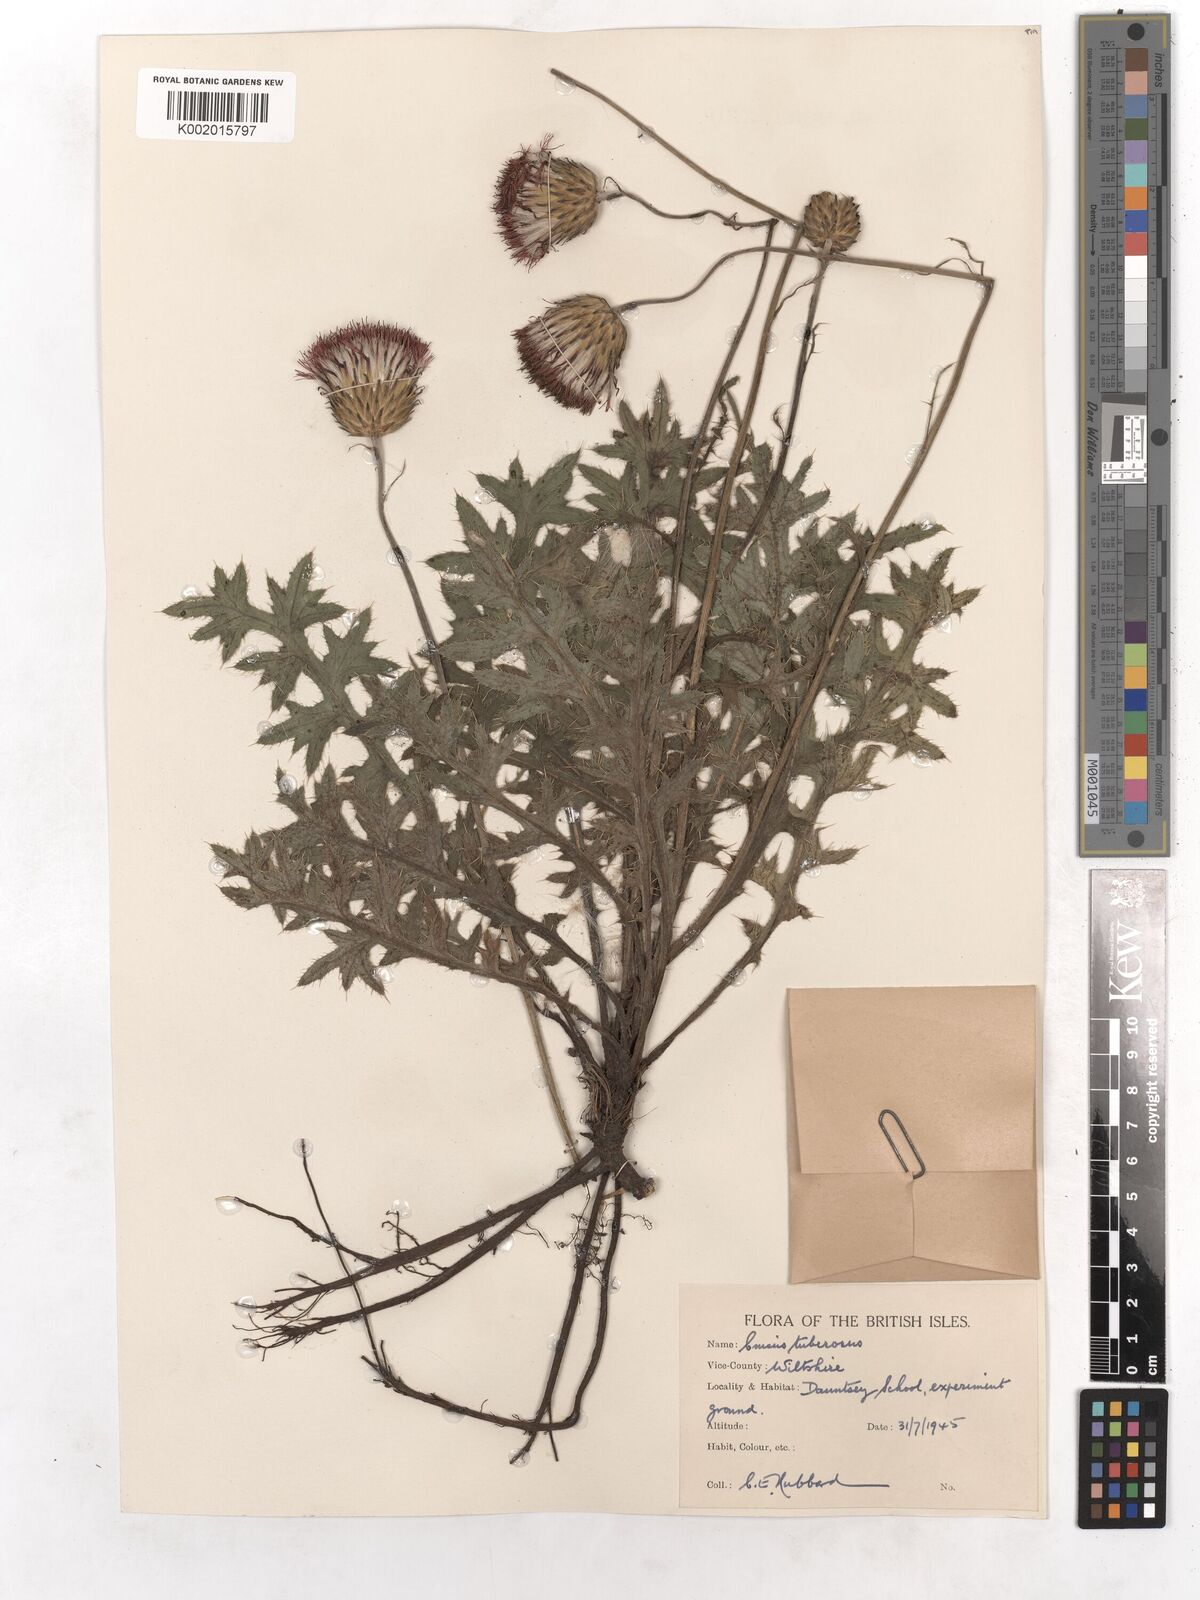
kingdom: Plantae
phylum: Tracheophyta
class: Magnoliopsida
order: Asterales
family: Asteraceae
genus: Cirsium
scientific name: Cirsium tuberosum
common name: Tuberous thistle
